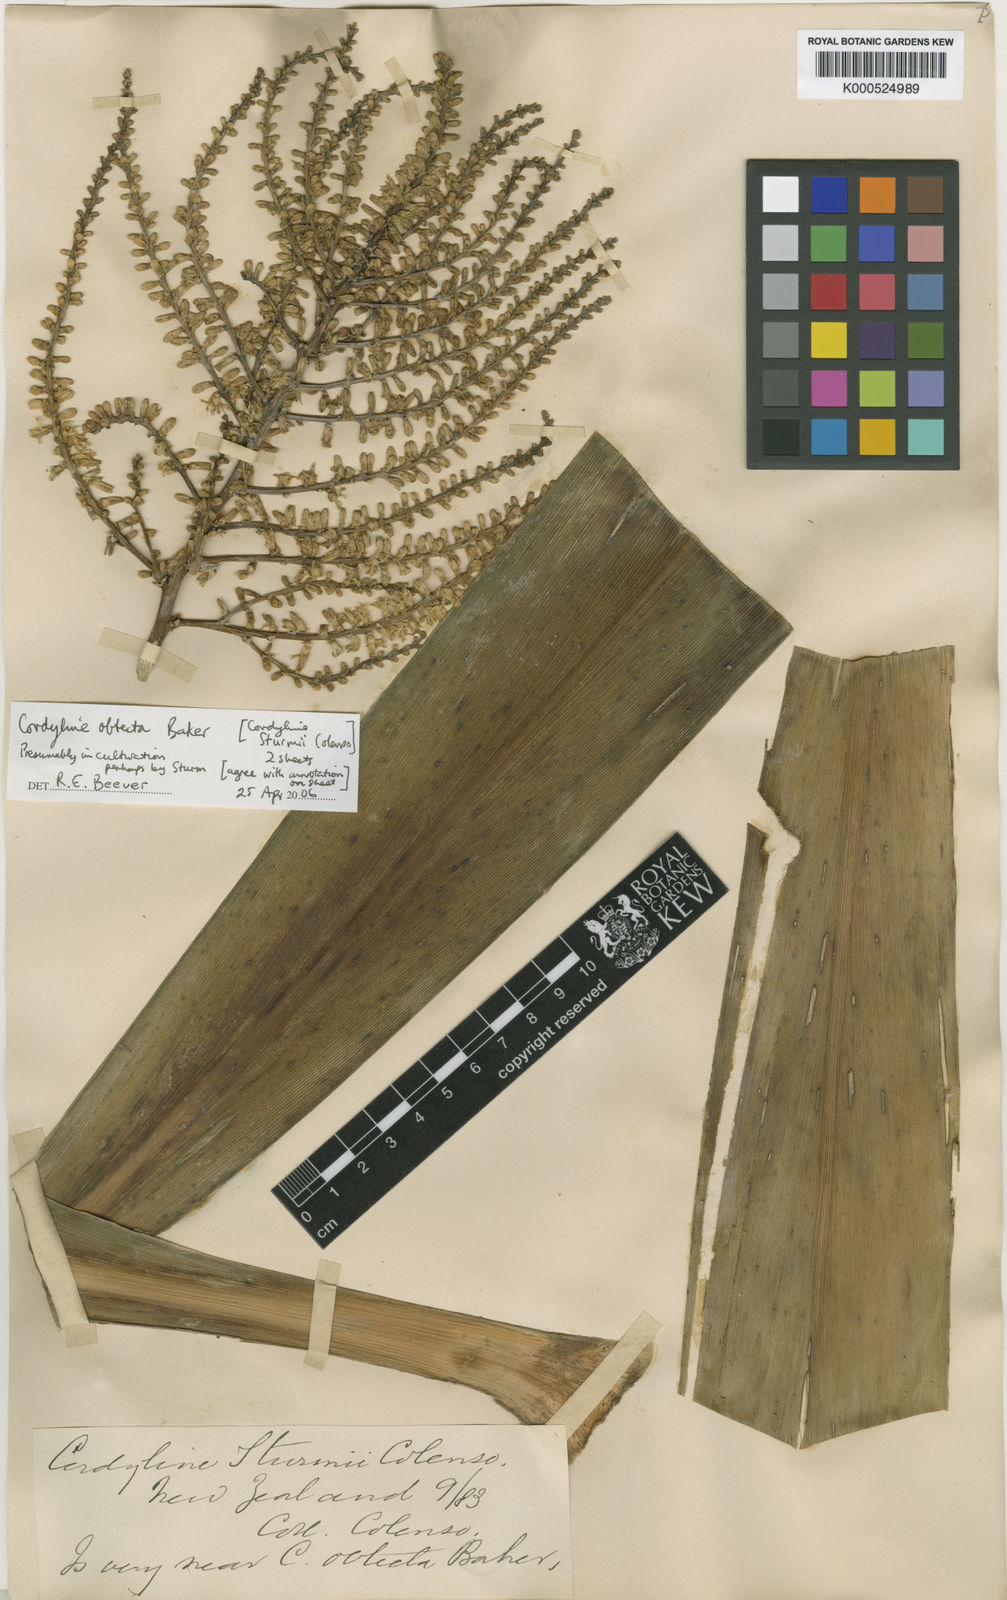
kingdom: Plantae
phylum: Tracheophyta
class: Liliopsida
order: Asparagales
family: Asparagaceae
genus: Cordyline
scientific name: Cordyline obtecta
